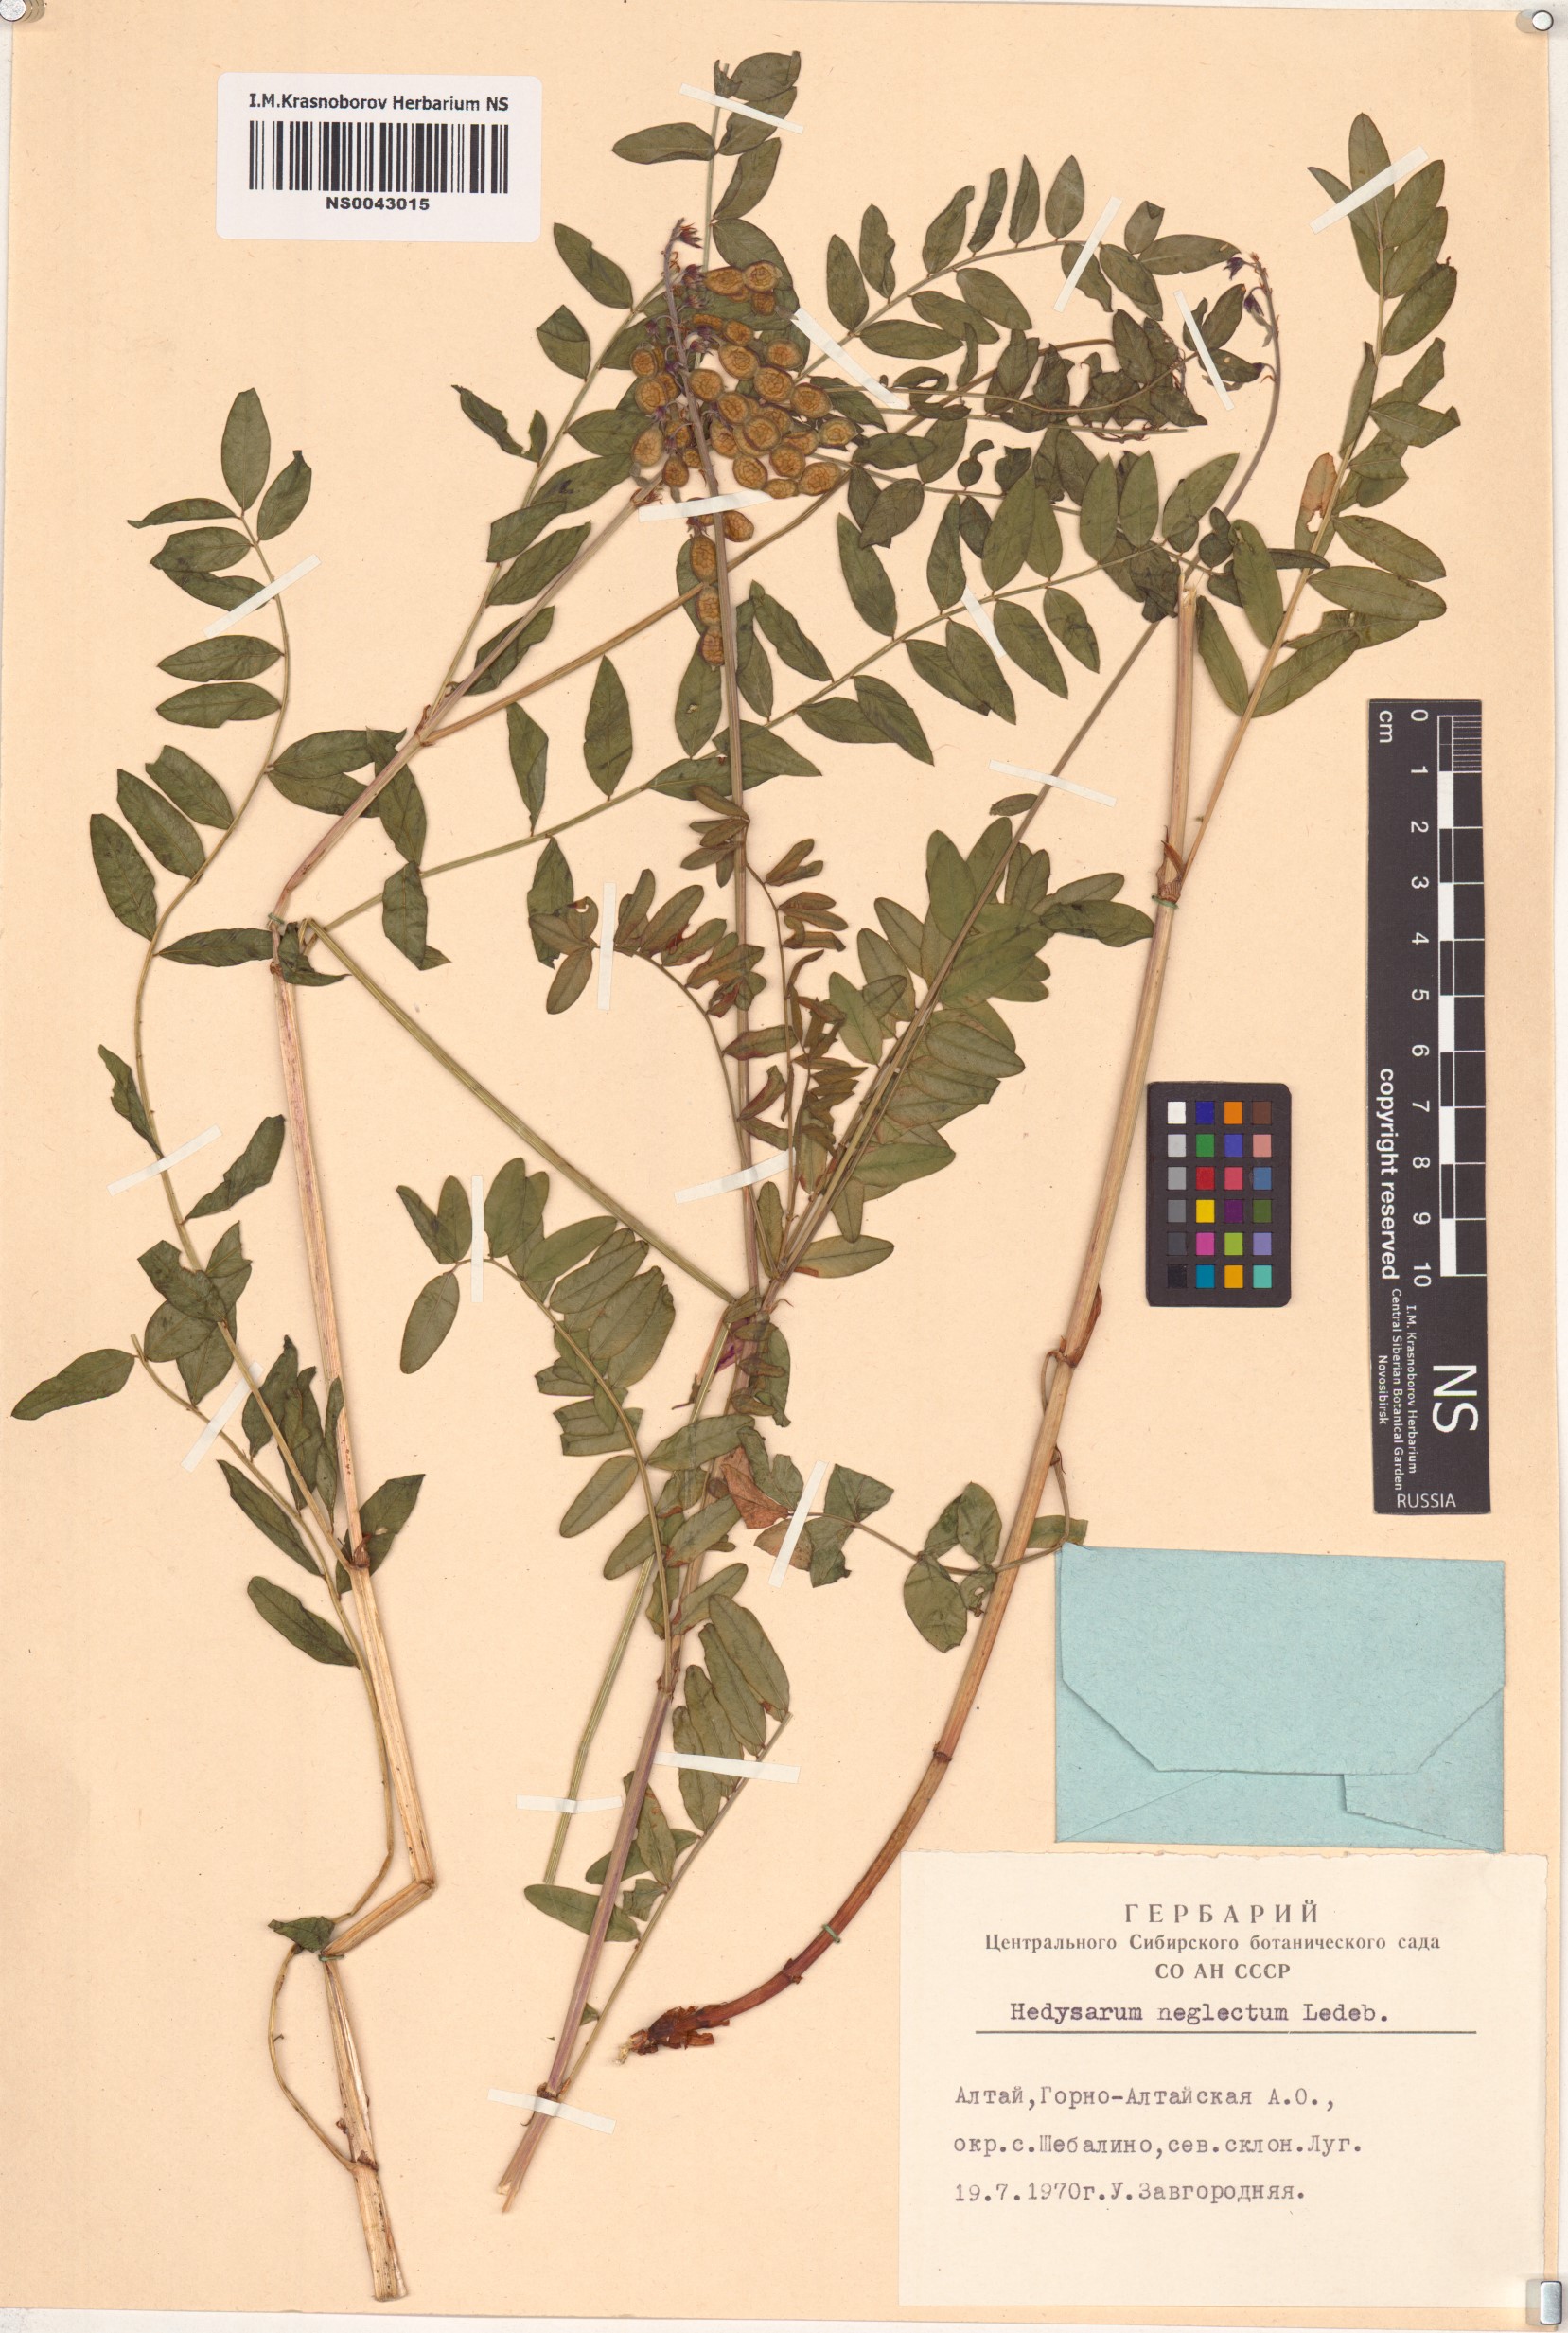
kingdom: Plantae
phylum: Tracheophyta
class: Magnoliopsida
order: Fabales
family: Fabaceae
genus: Hedysarum
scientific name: Hedysarum neglectum
